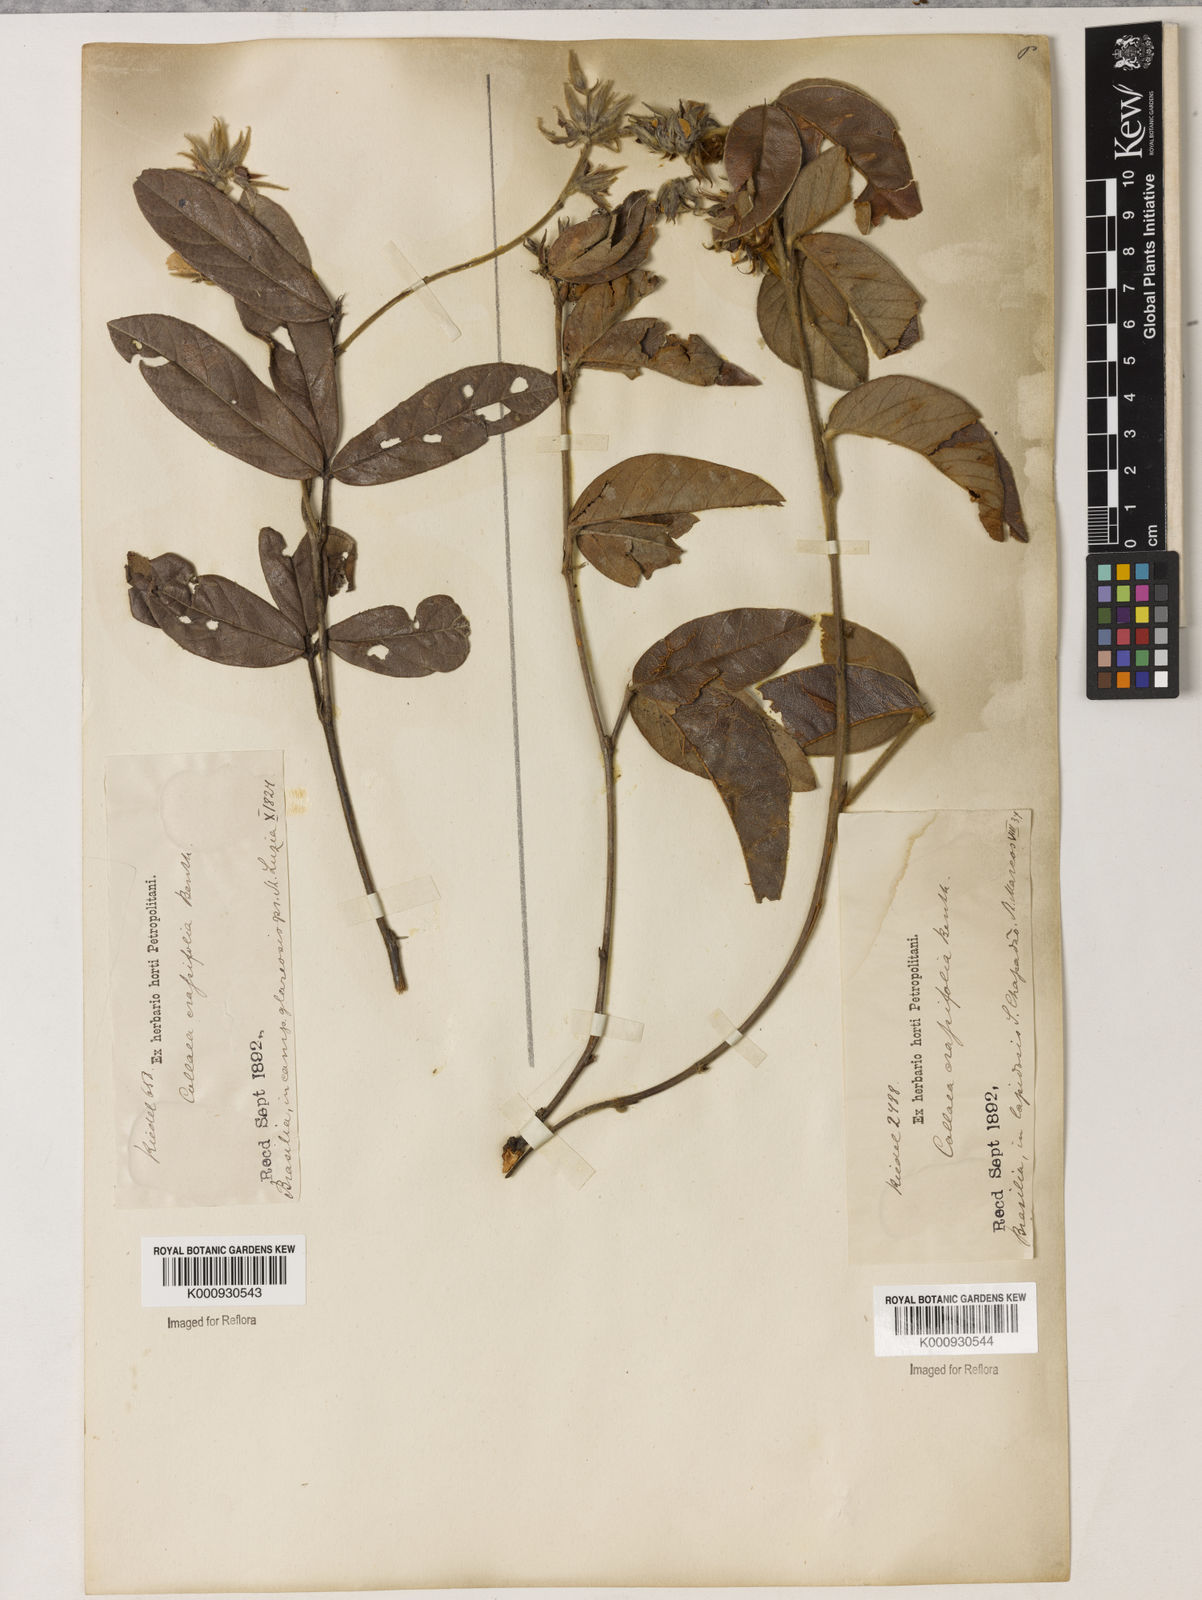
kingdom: Plantae
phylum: Tracheophyta
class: Magnoliopsida
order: Fabales
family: Fabaceae
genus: Betencourtia
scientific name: Betencourtia crassifolia
